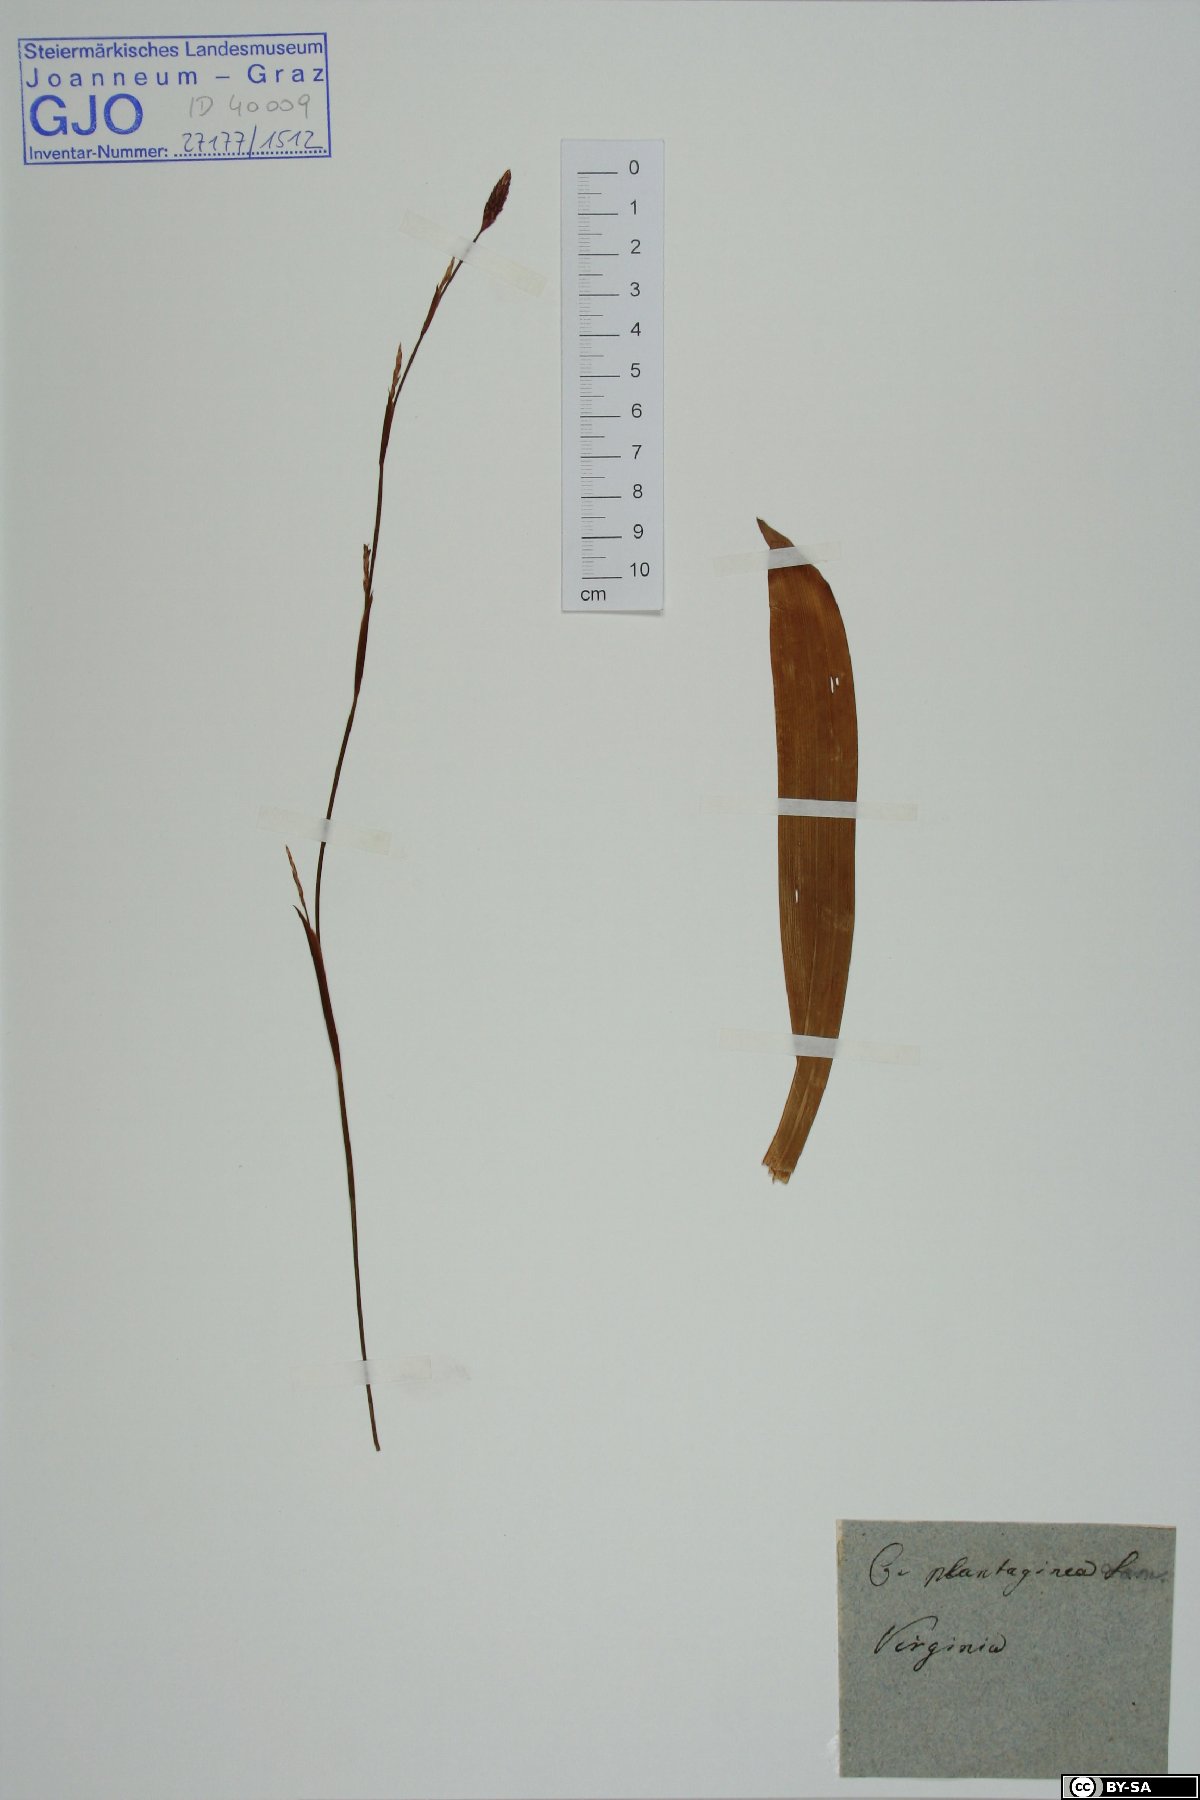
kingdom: Plantae
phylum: Tracheophyta
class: Liliopsida
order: Poales
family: Cyperaceae
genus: Carex
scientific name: Carex plantaginea
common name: Plantain-leaved sedge
